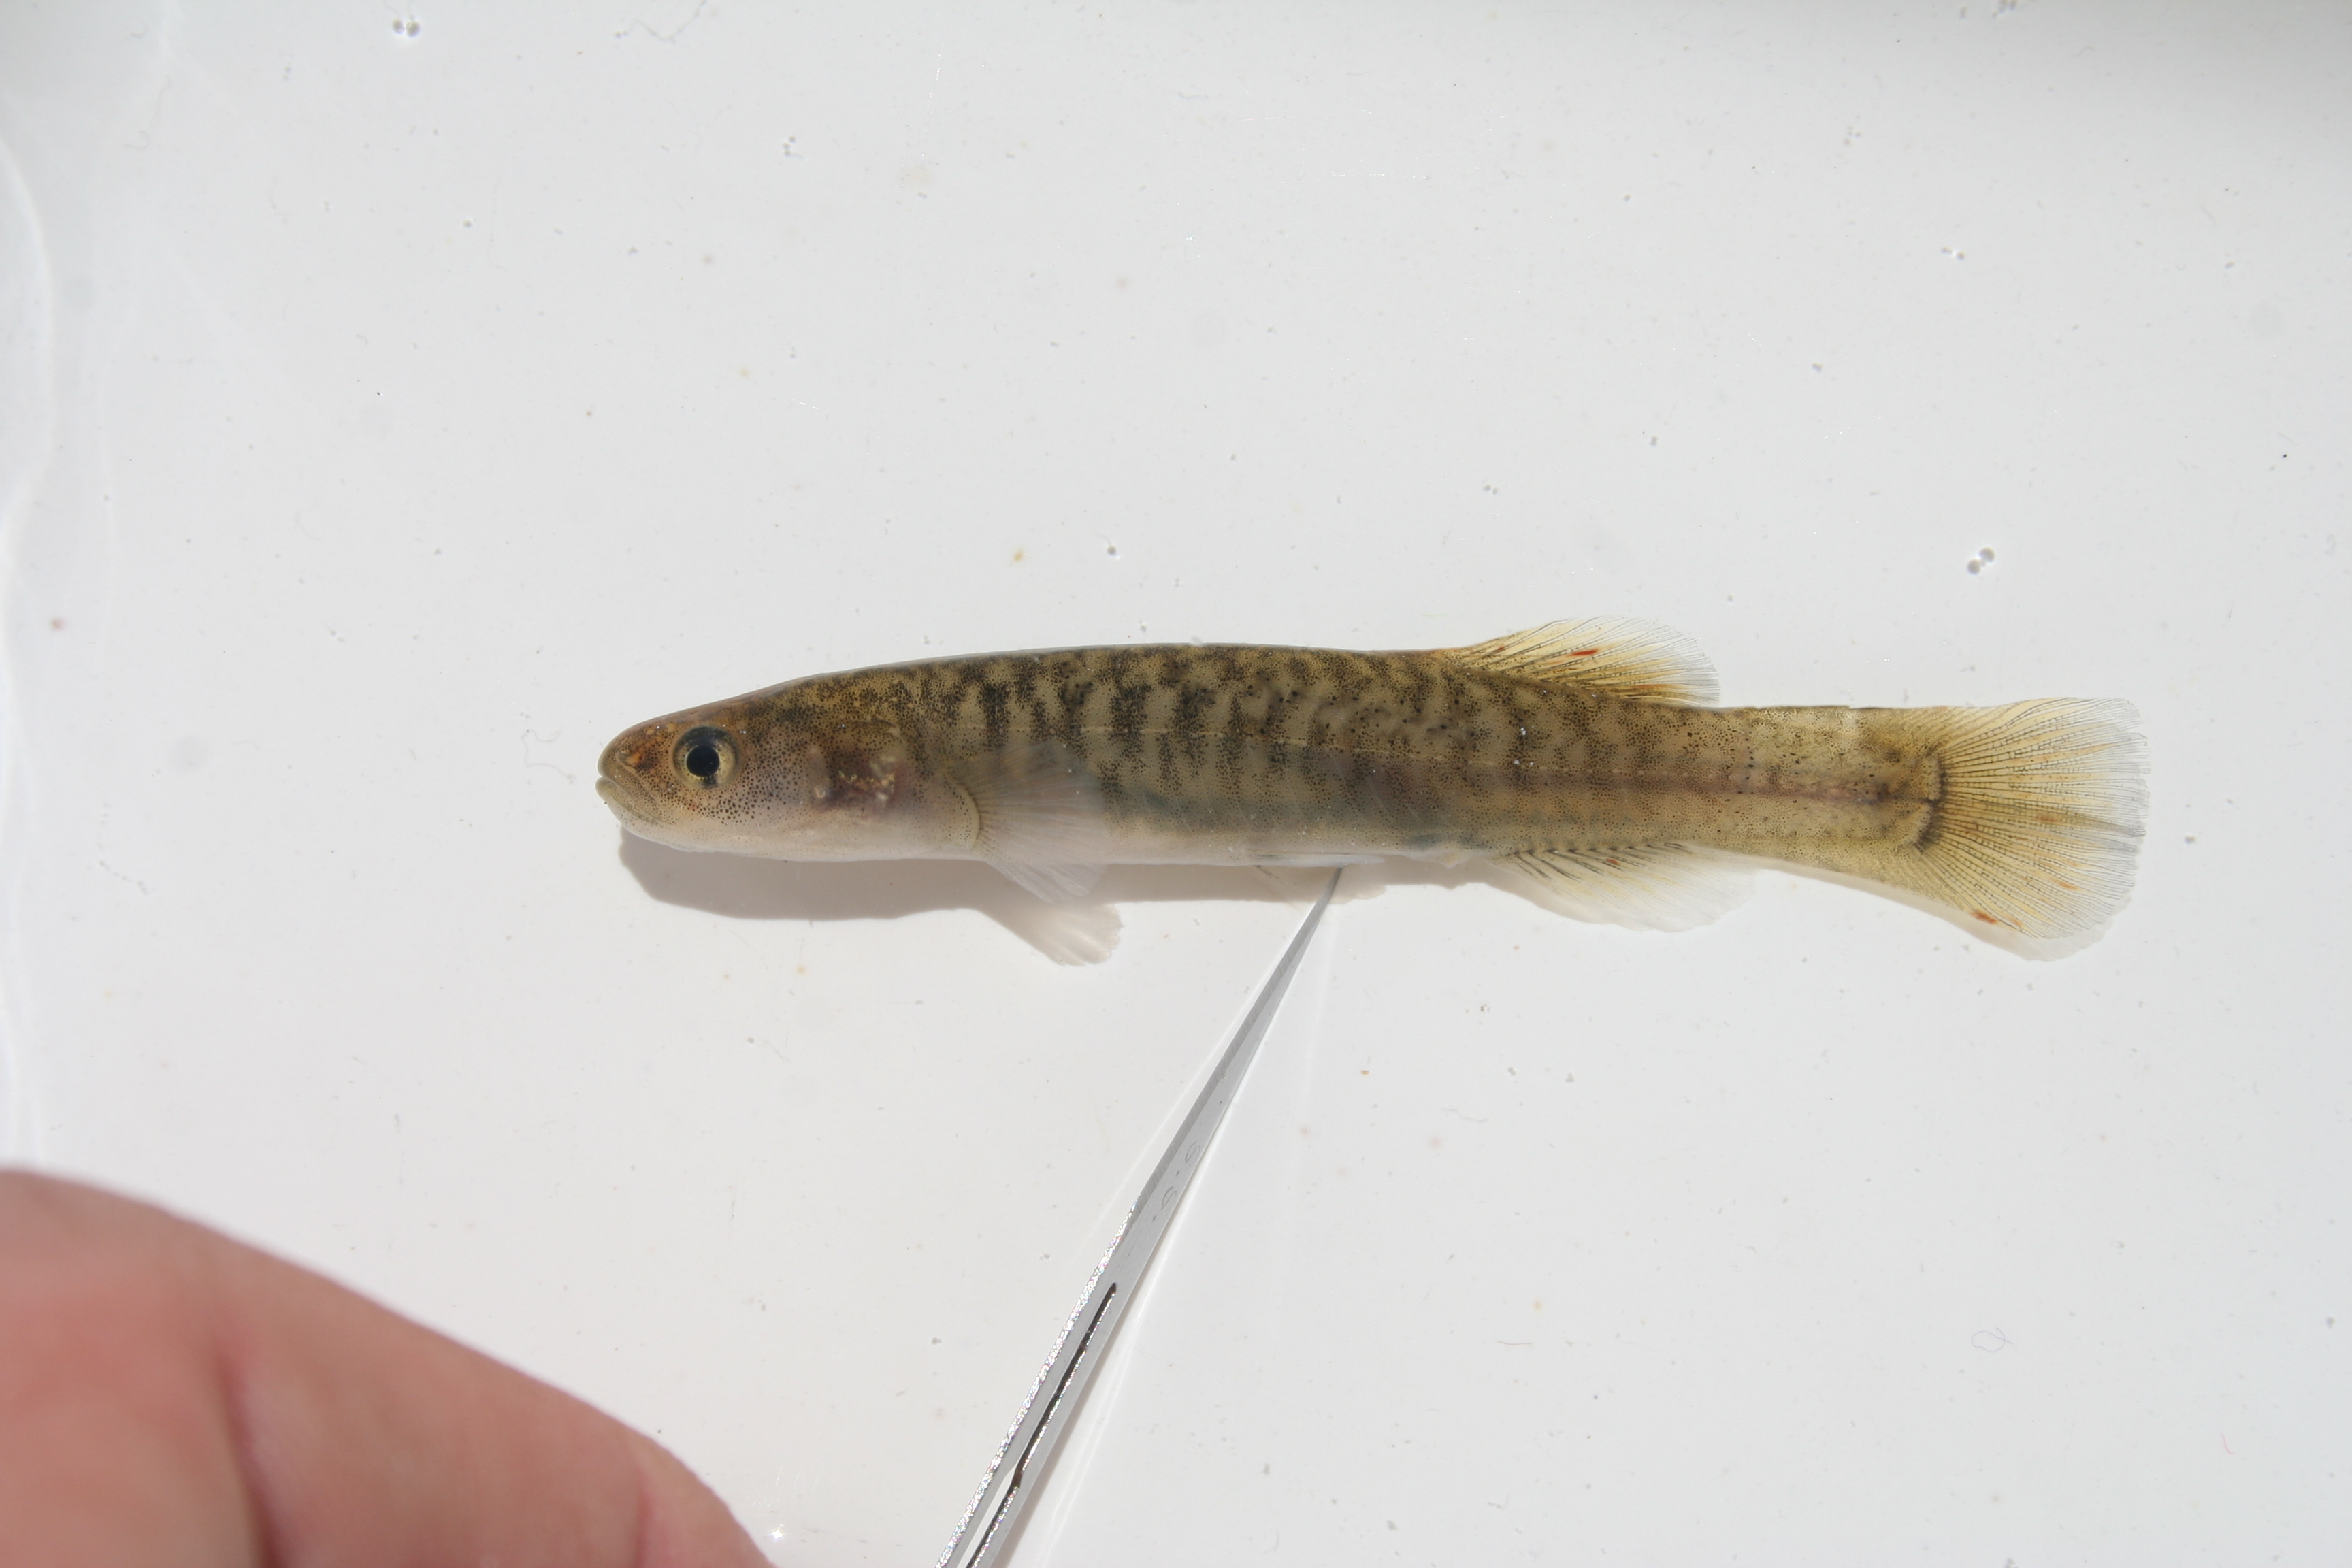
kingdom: Animalia
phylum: Chordata
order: Osmeriformes
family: Galaxiidae
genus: Galaxias
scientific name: Galaxias
